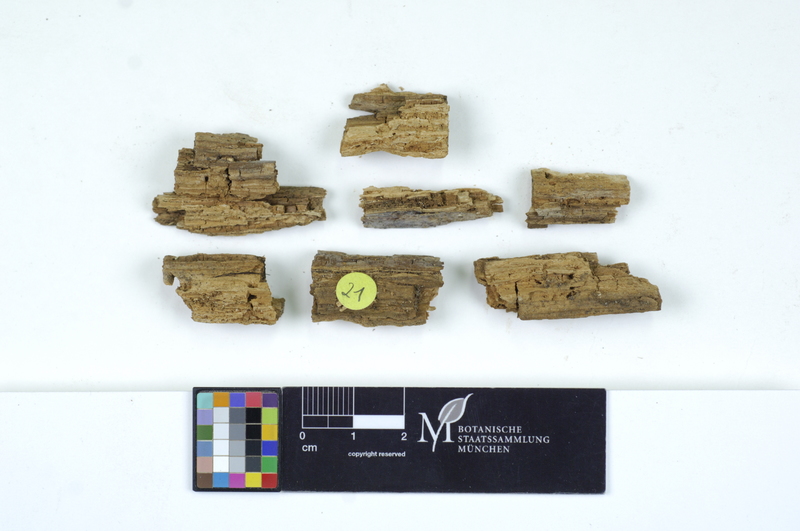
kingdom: Fungi
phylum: Basidiomycota
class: Agaricomycetes
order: Auriculariales
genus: Basidiodendron
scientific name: Basidiodendron caesiocinereum
